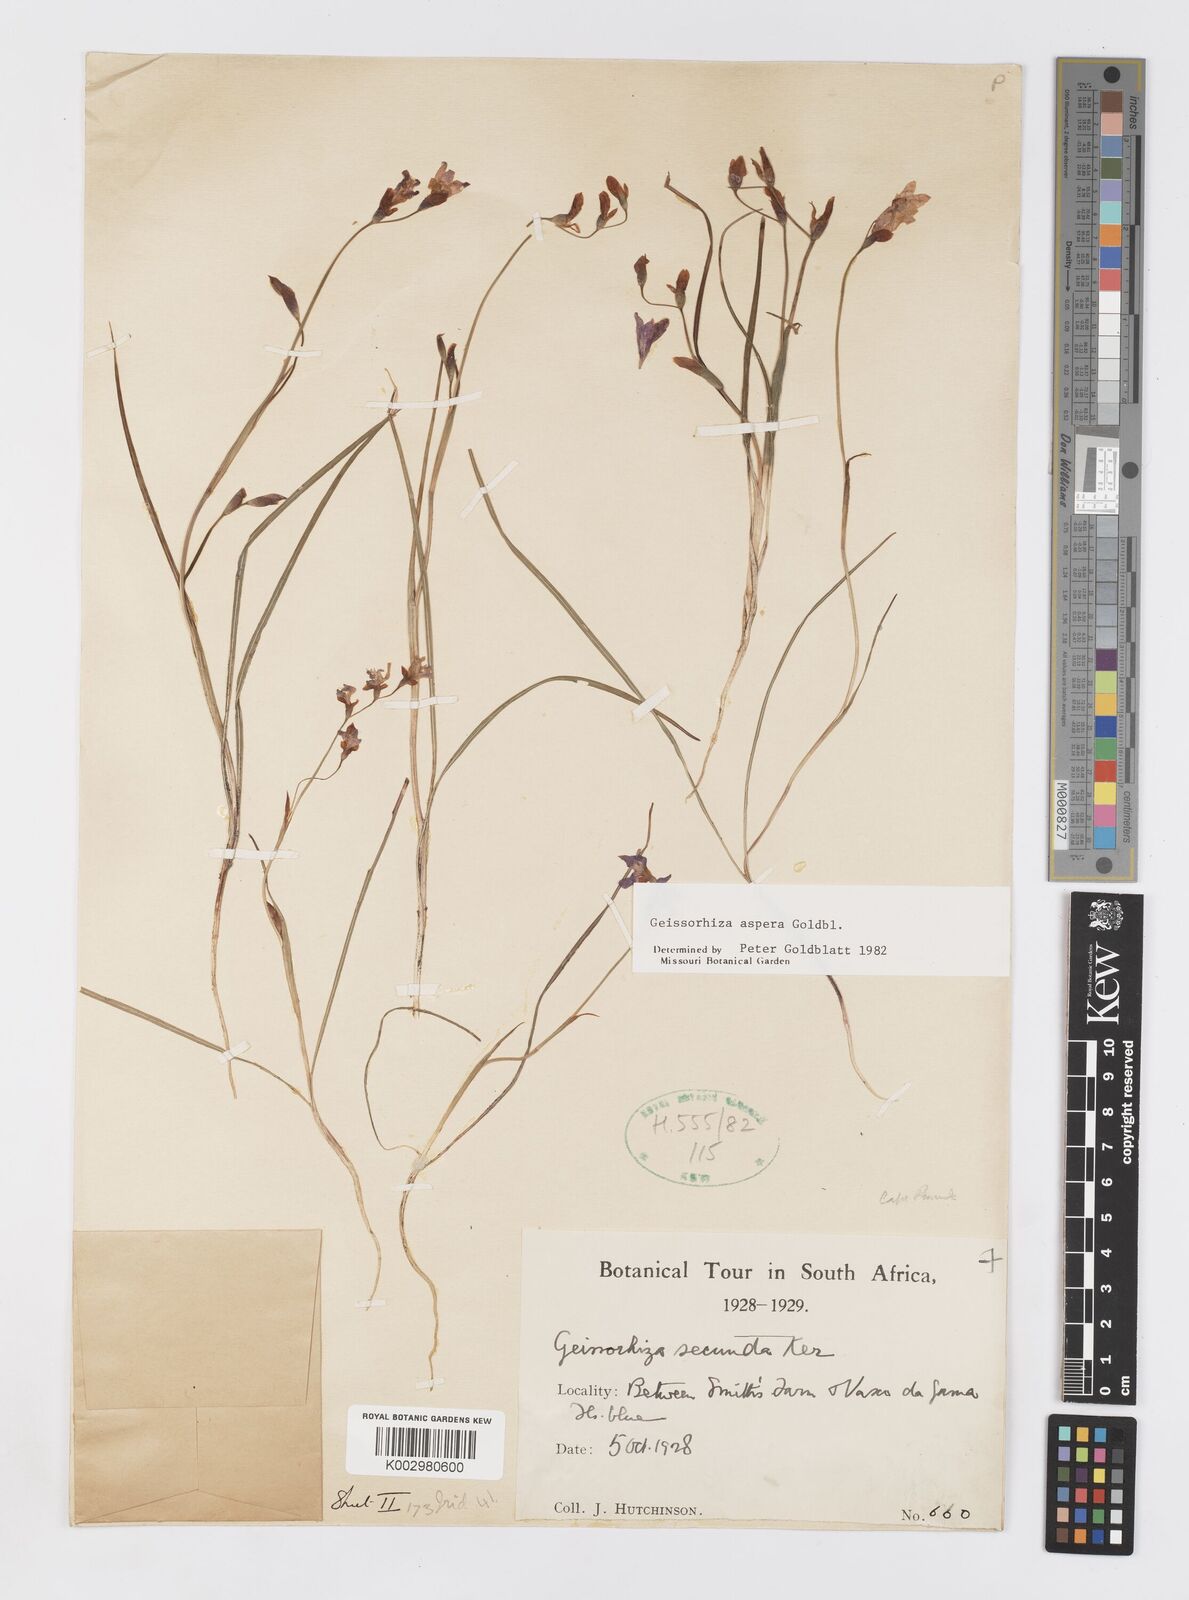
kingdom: Plantae
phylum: Tracheophyta
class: Liliopsida
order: Asparagales
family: Iridaceae
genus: Geissorhiza
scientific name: Geissorhiza aspera
